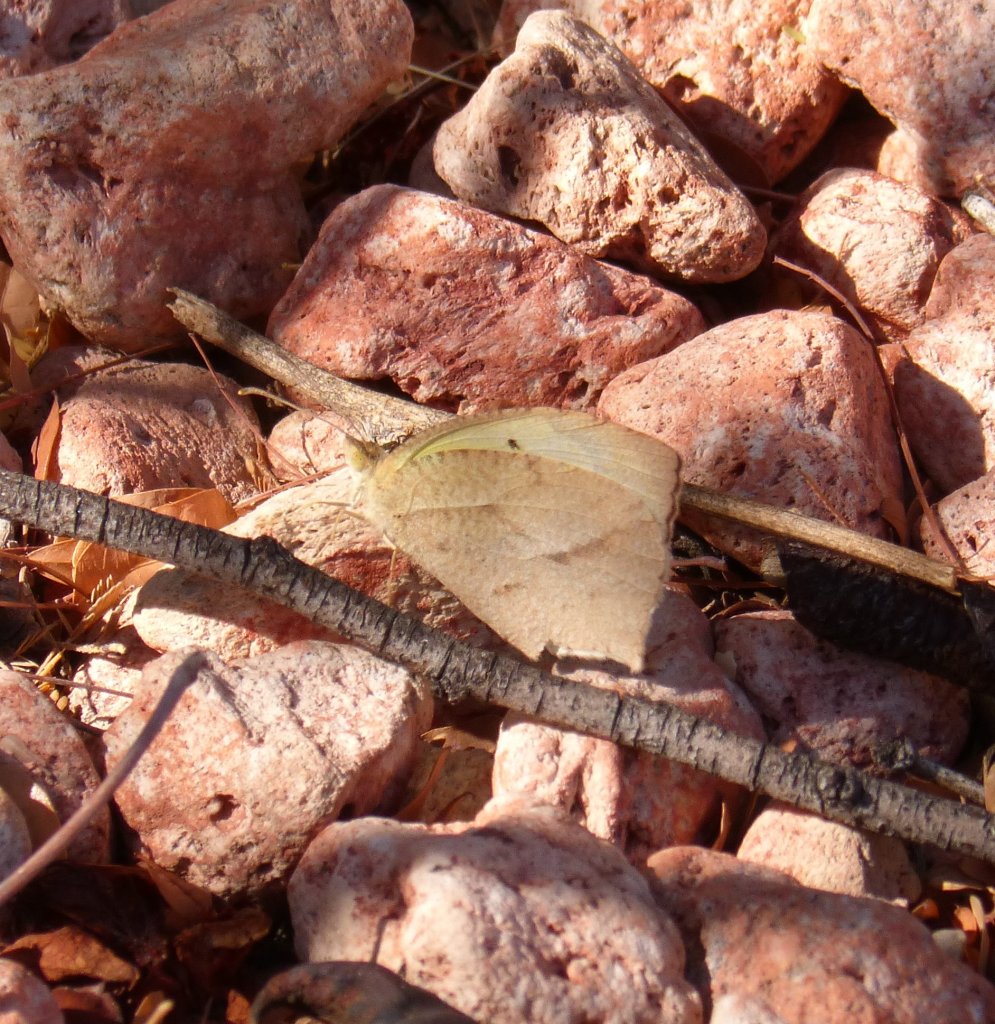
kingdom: Animalia
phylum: Arthropoda
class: Insecta
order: Lepidoptera
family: Pieridae
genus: Eurema
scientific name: Eurema mexicana
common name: Mexican Yellow
